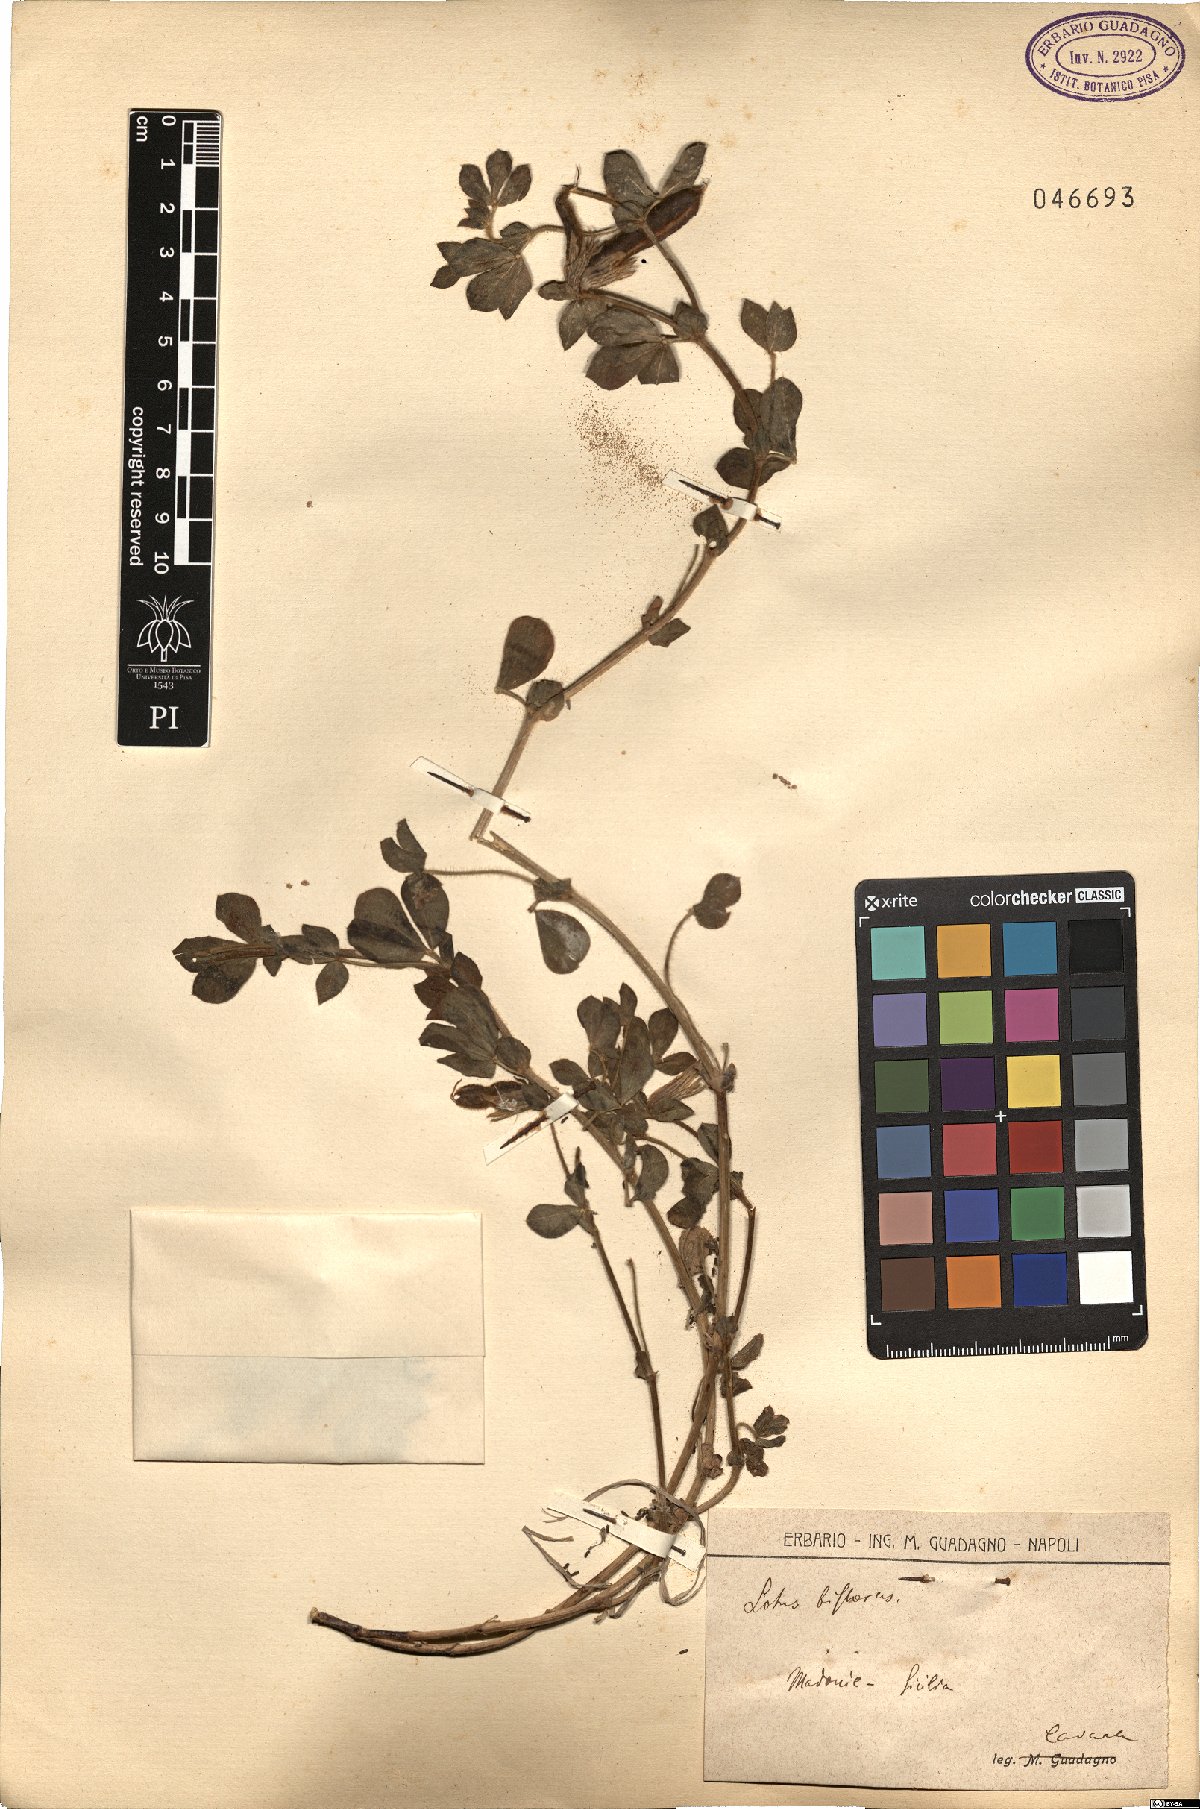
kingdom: Plantae
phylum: Tracheophyta
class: Magnoliopsida
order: Fabales
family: Fabaceae
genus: Lotus
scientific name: Lotus biflorus
